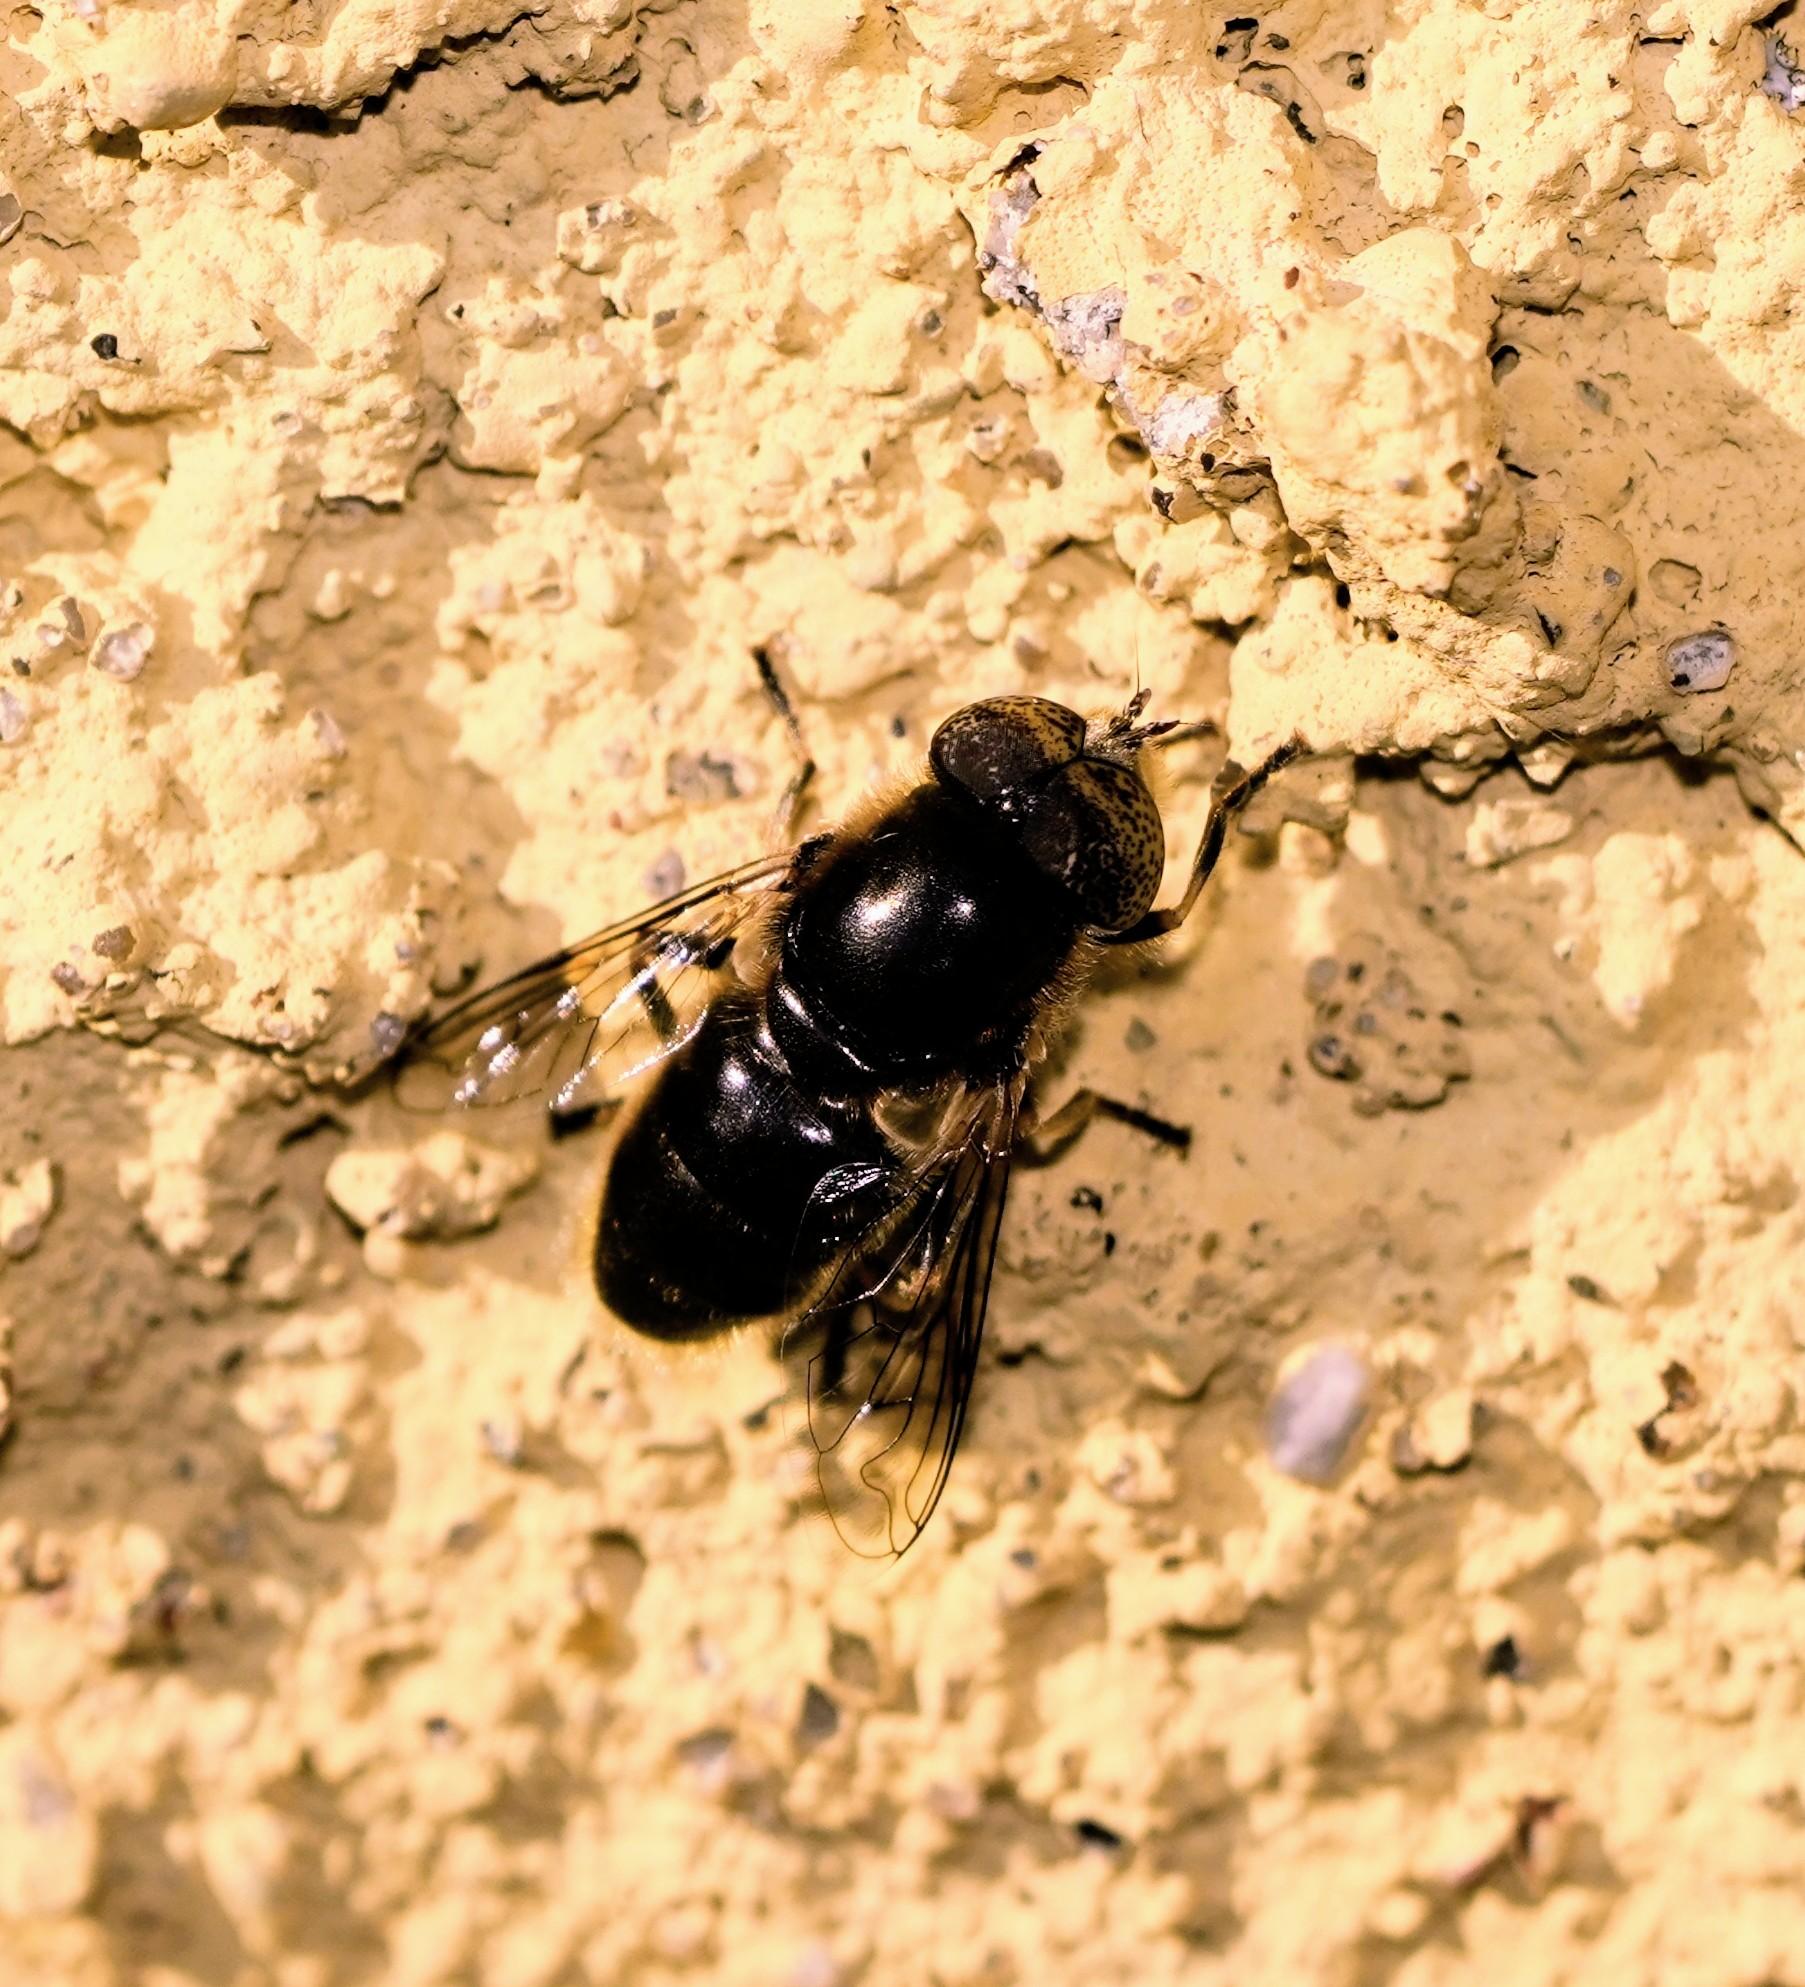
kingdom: Animalia
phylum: Arthropoda
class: Insecta
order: Diptera
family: Syrphidae
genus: Eristalinus
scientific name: Eristalinus aeneus
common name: Brakvands-dyndflue
